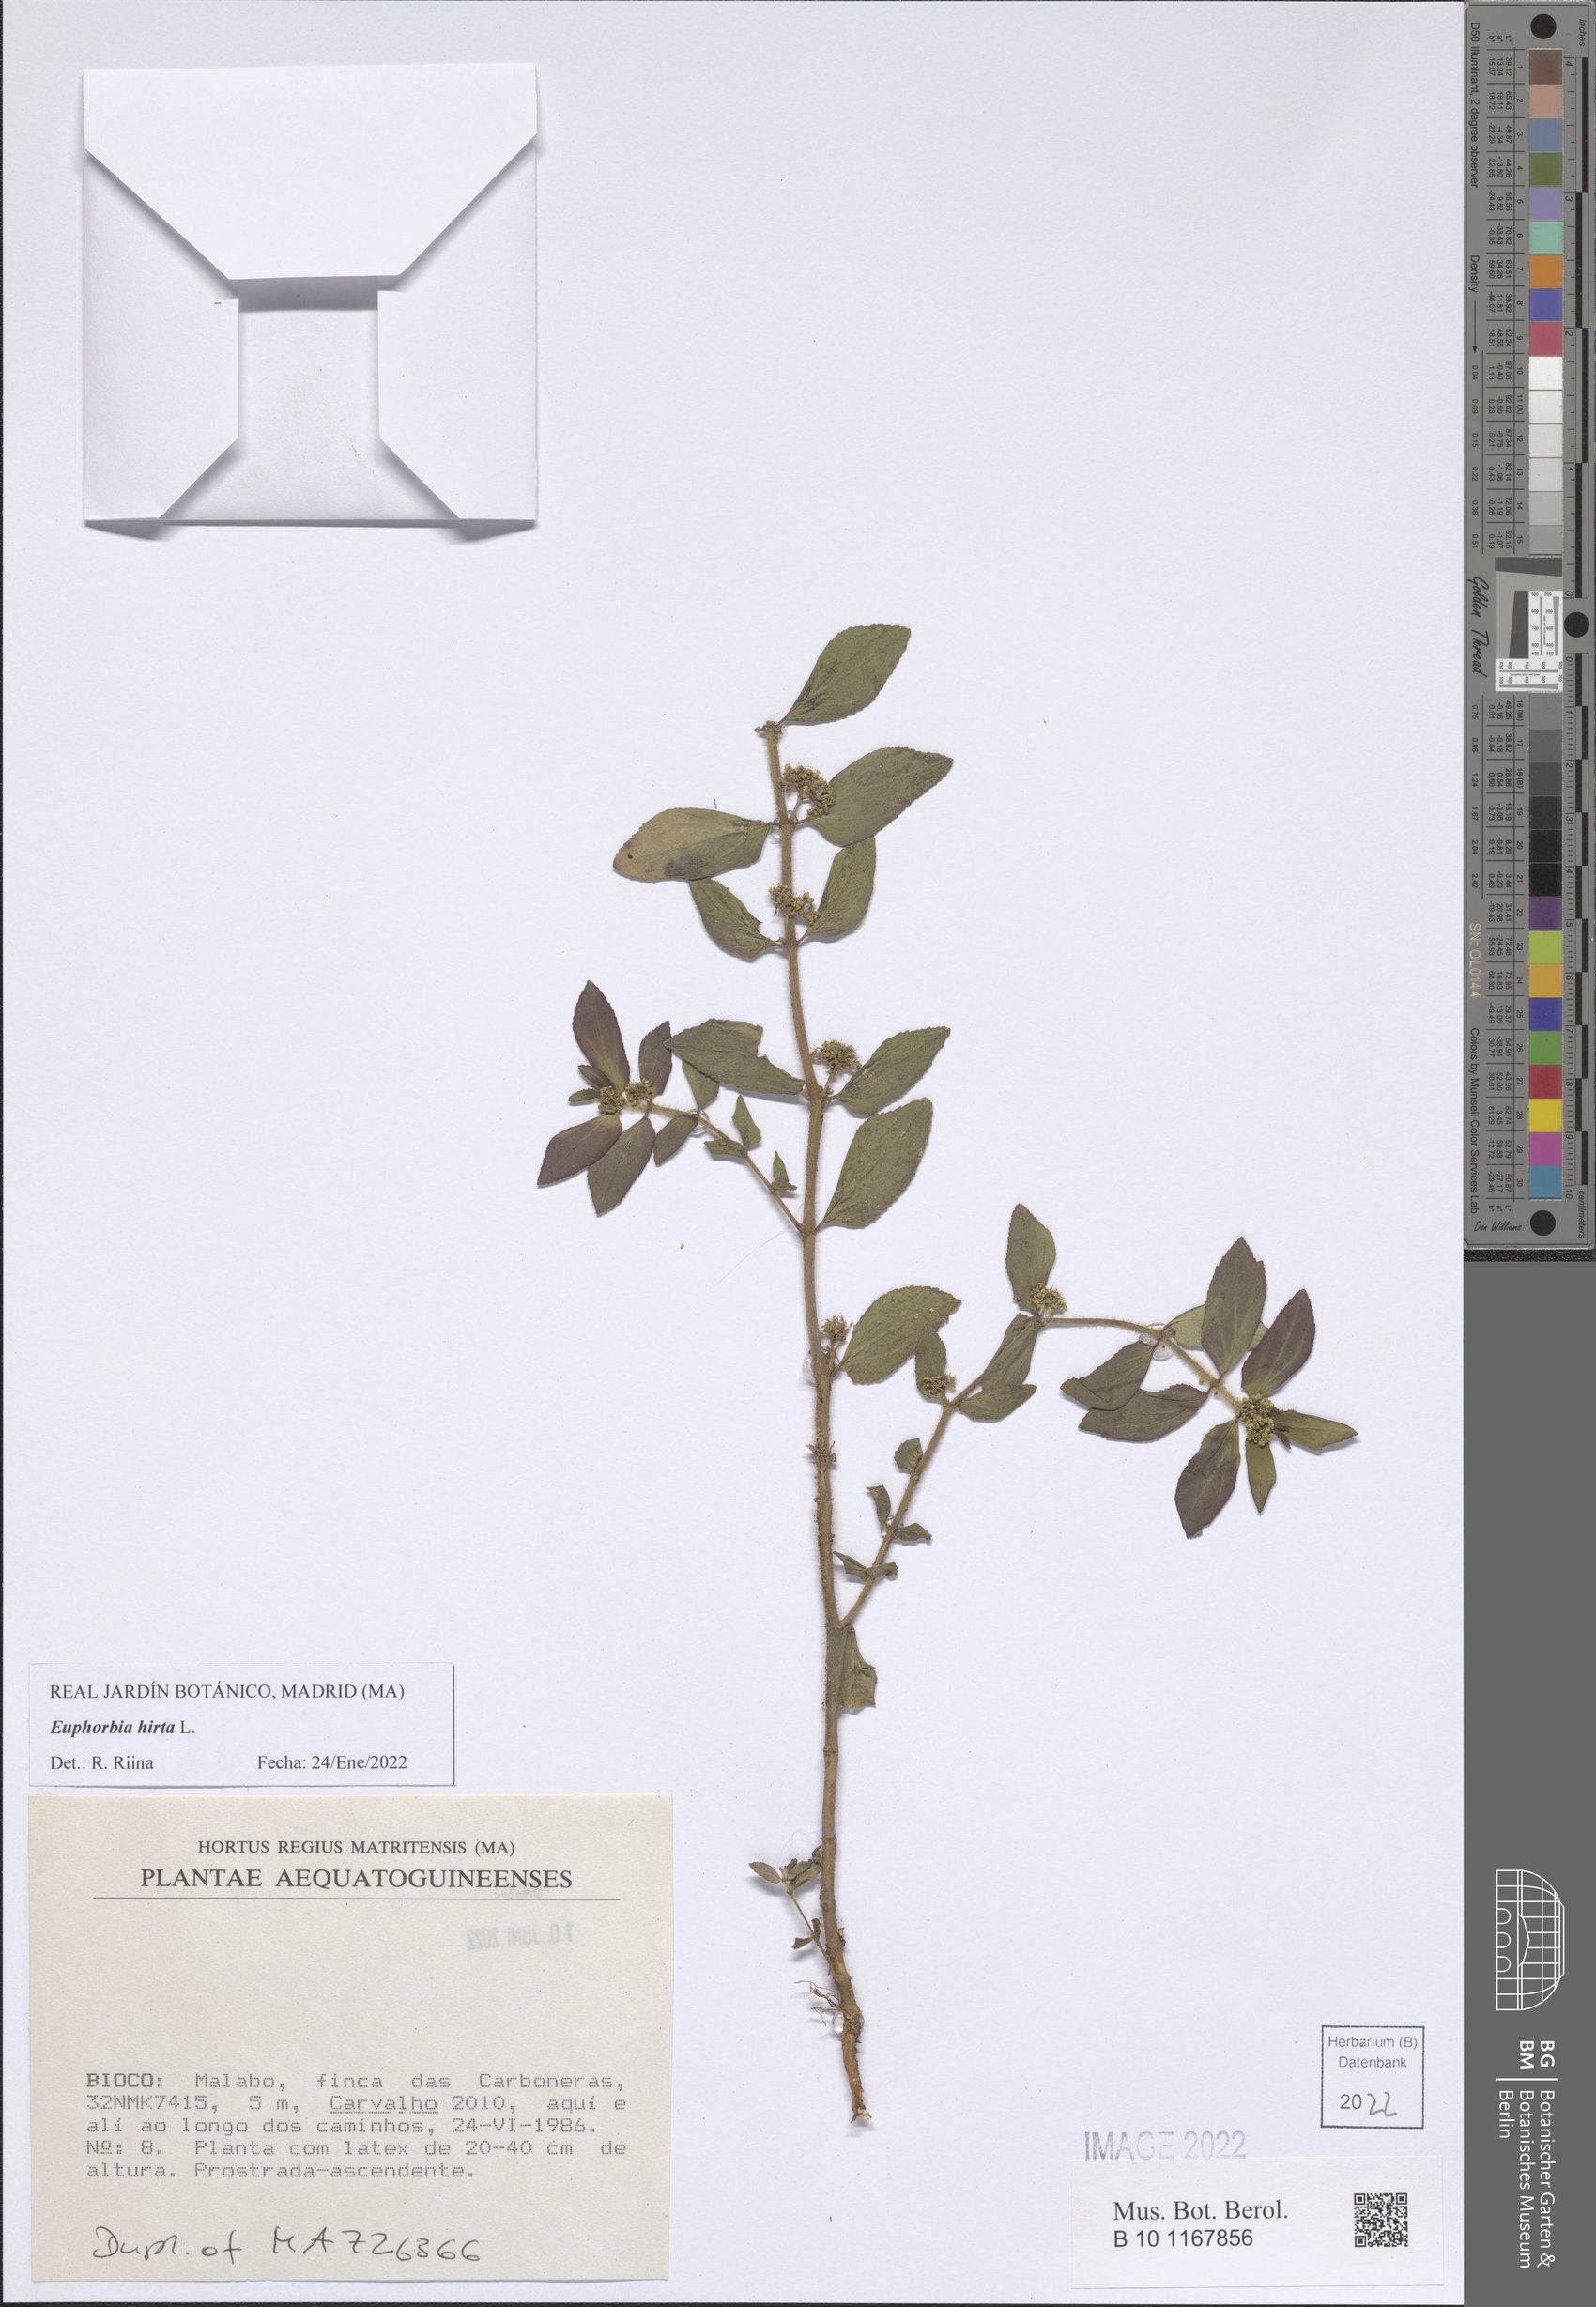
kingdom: Plantae
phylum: Tracheophyta
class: Magnoliopsida
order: Malpighiales
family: Euphorbiaceae
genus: Euphorbia
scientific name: Euphorbia hirta
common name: Pillpod sandmat
